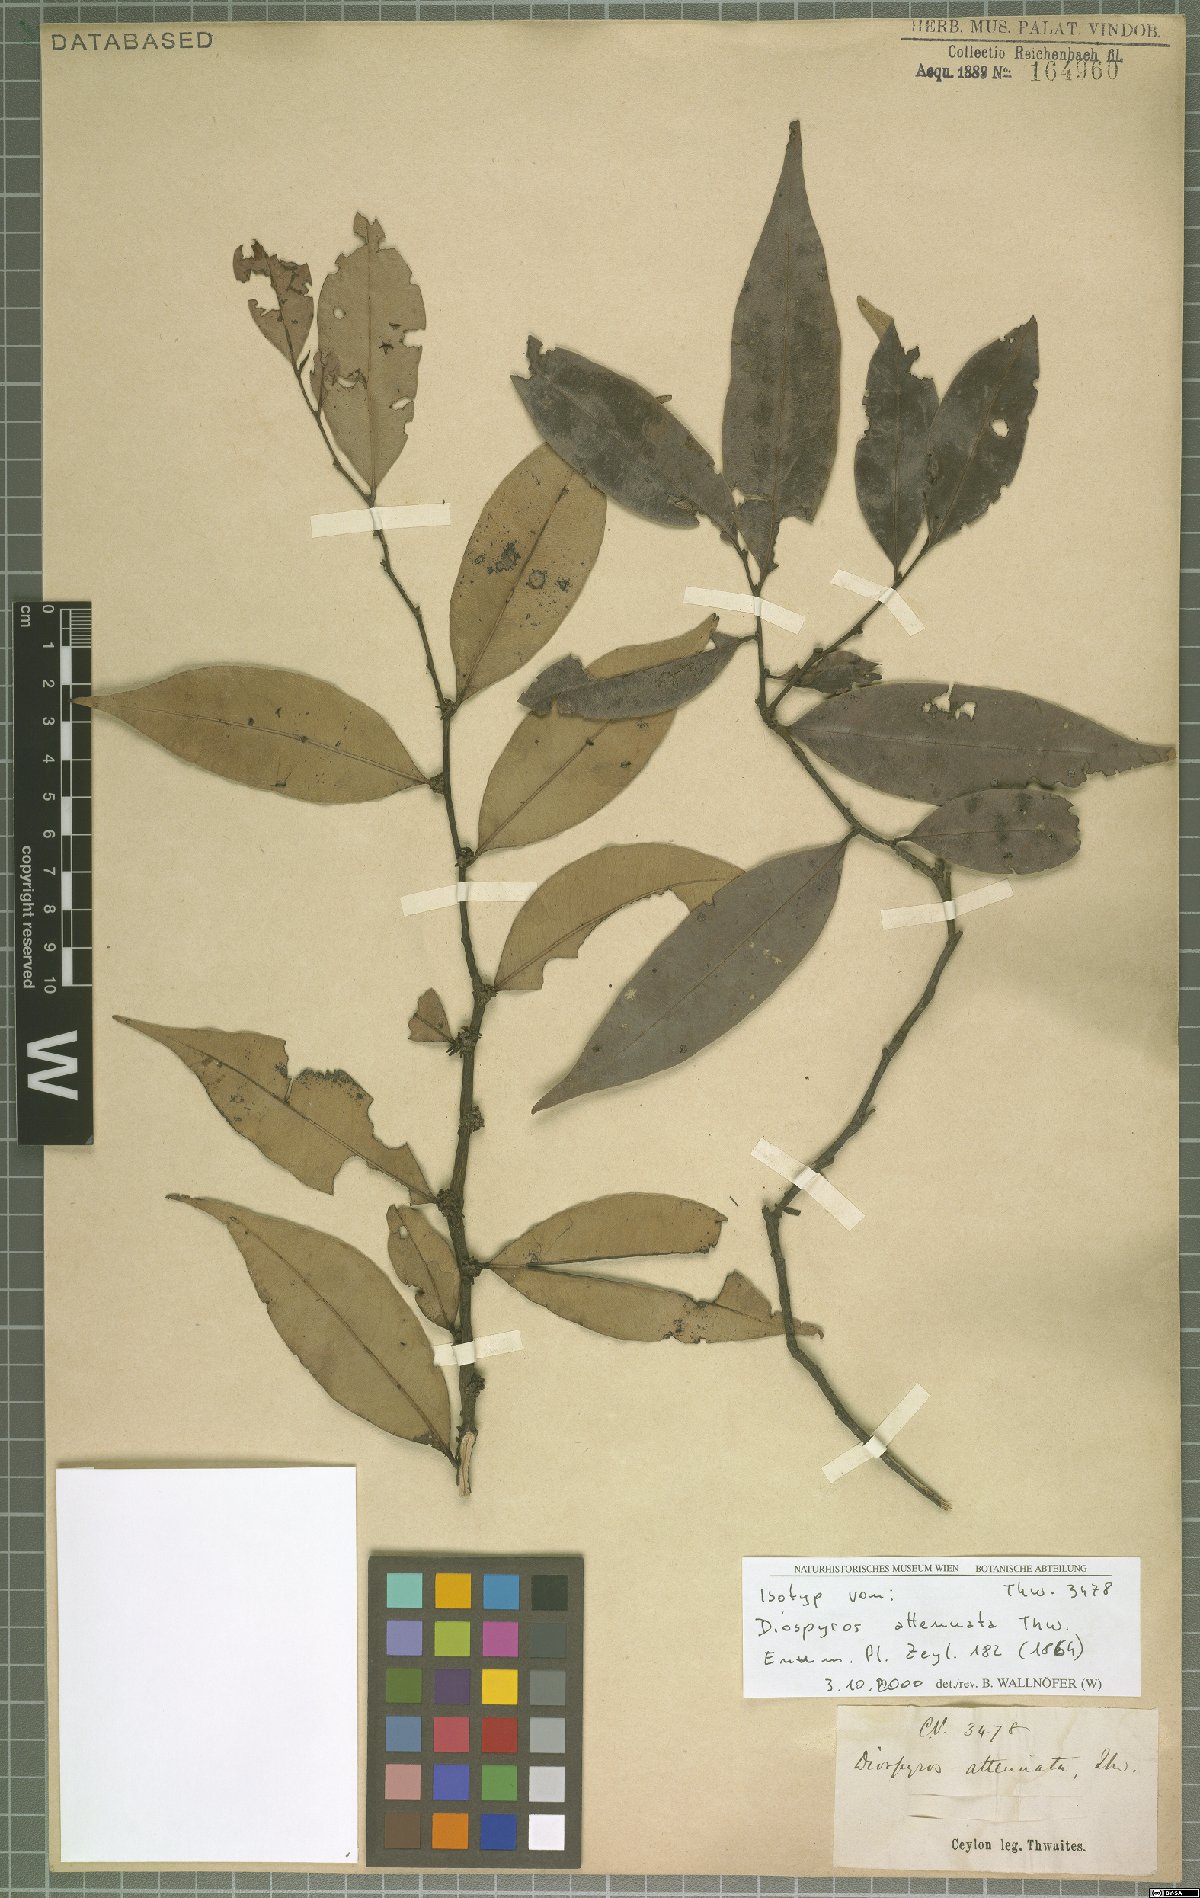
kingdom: Plantae
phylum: Tracheophyta
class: Magnoliopsida
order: Ericales
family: Ebenaceae
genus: Diospyros
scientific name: Diospyros attenuata
